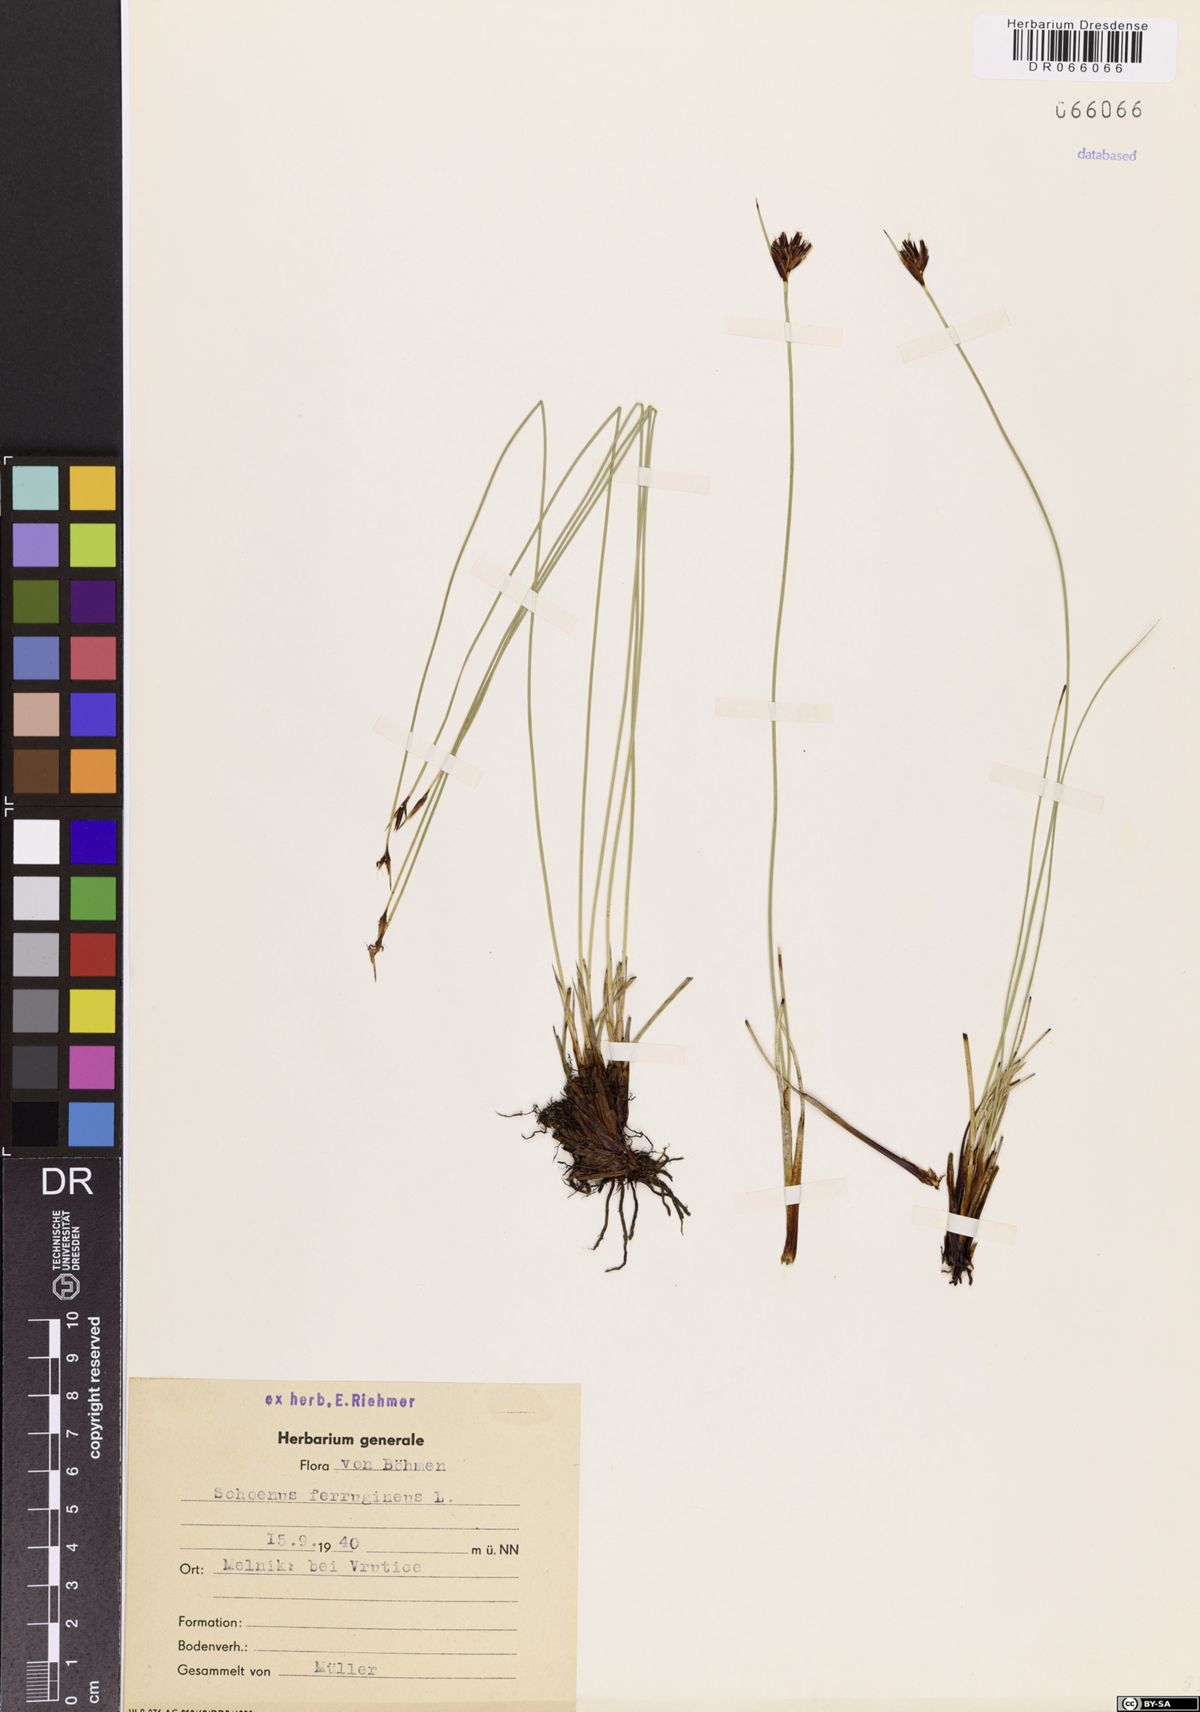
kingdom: Plantae
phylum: Tracheophyta
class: Liliopsida
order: Poales
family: Cyperaceae
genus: Schoenus
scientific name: Schoenus ferrugineus
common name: Brown bog-rush
